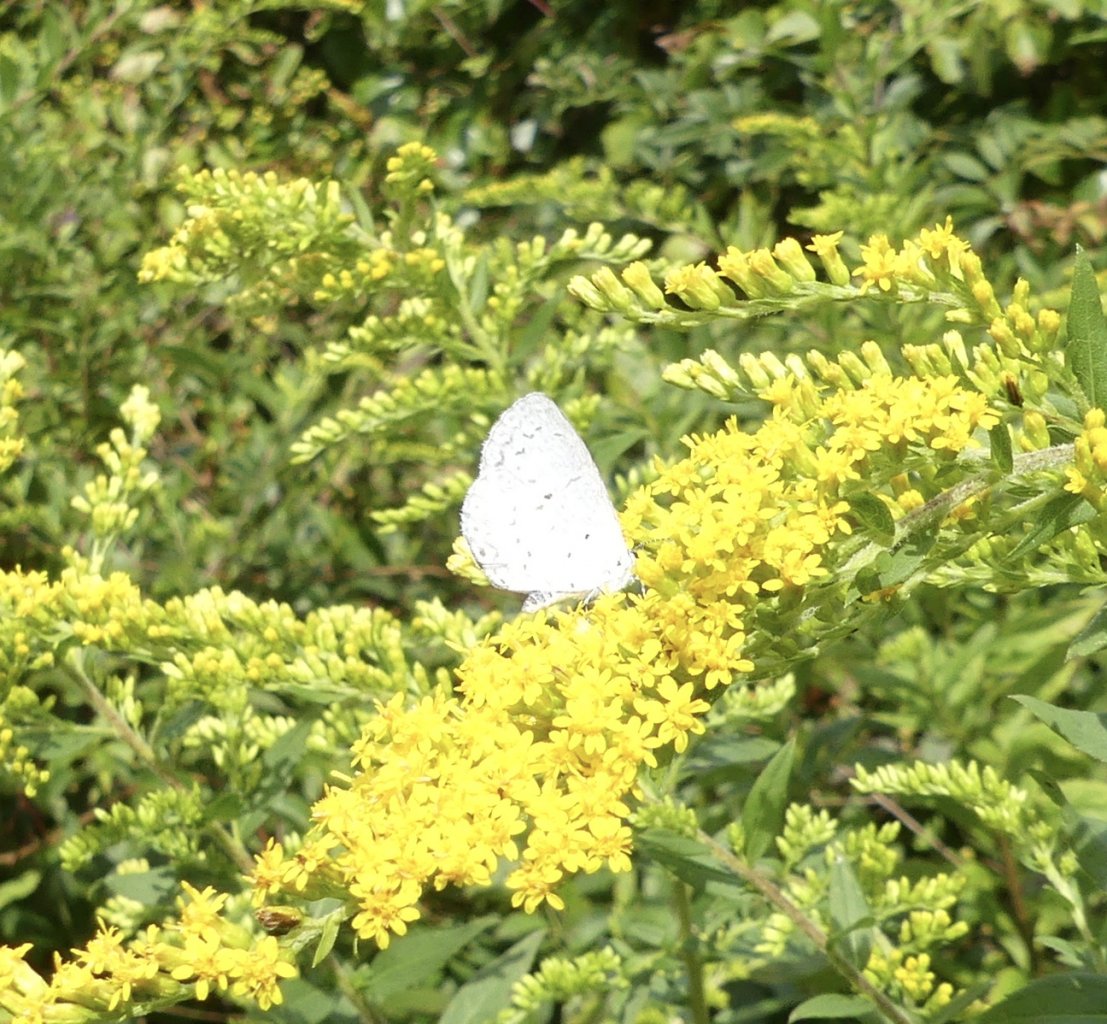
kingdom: Animalia
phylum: Arthropoda
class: Insecta
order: Lepidoptera
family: Lycaenidae
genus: Cyaniris
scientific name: Cyaniris neglecta
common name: Summer Azure
